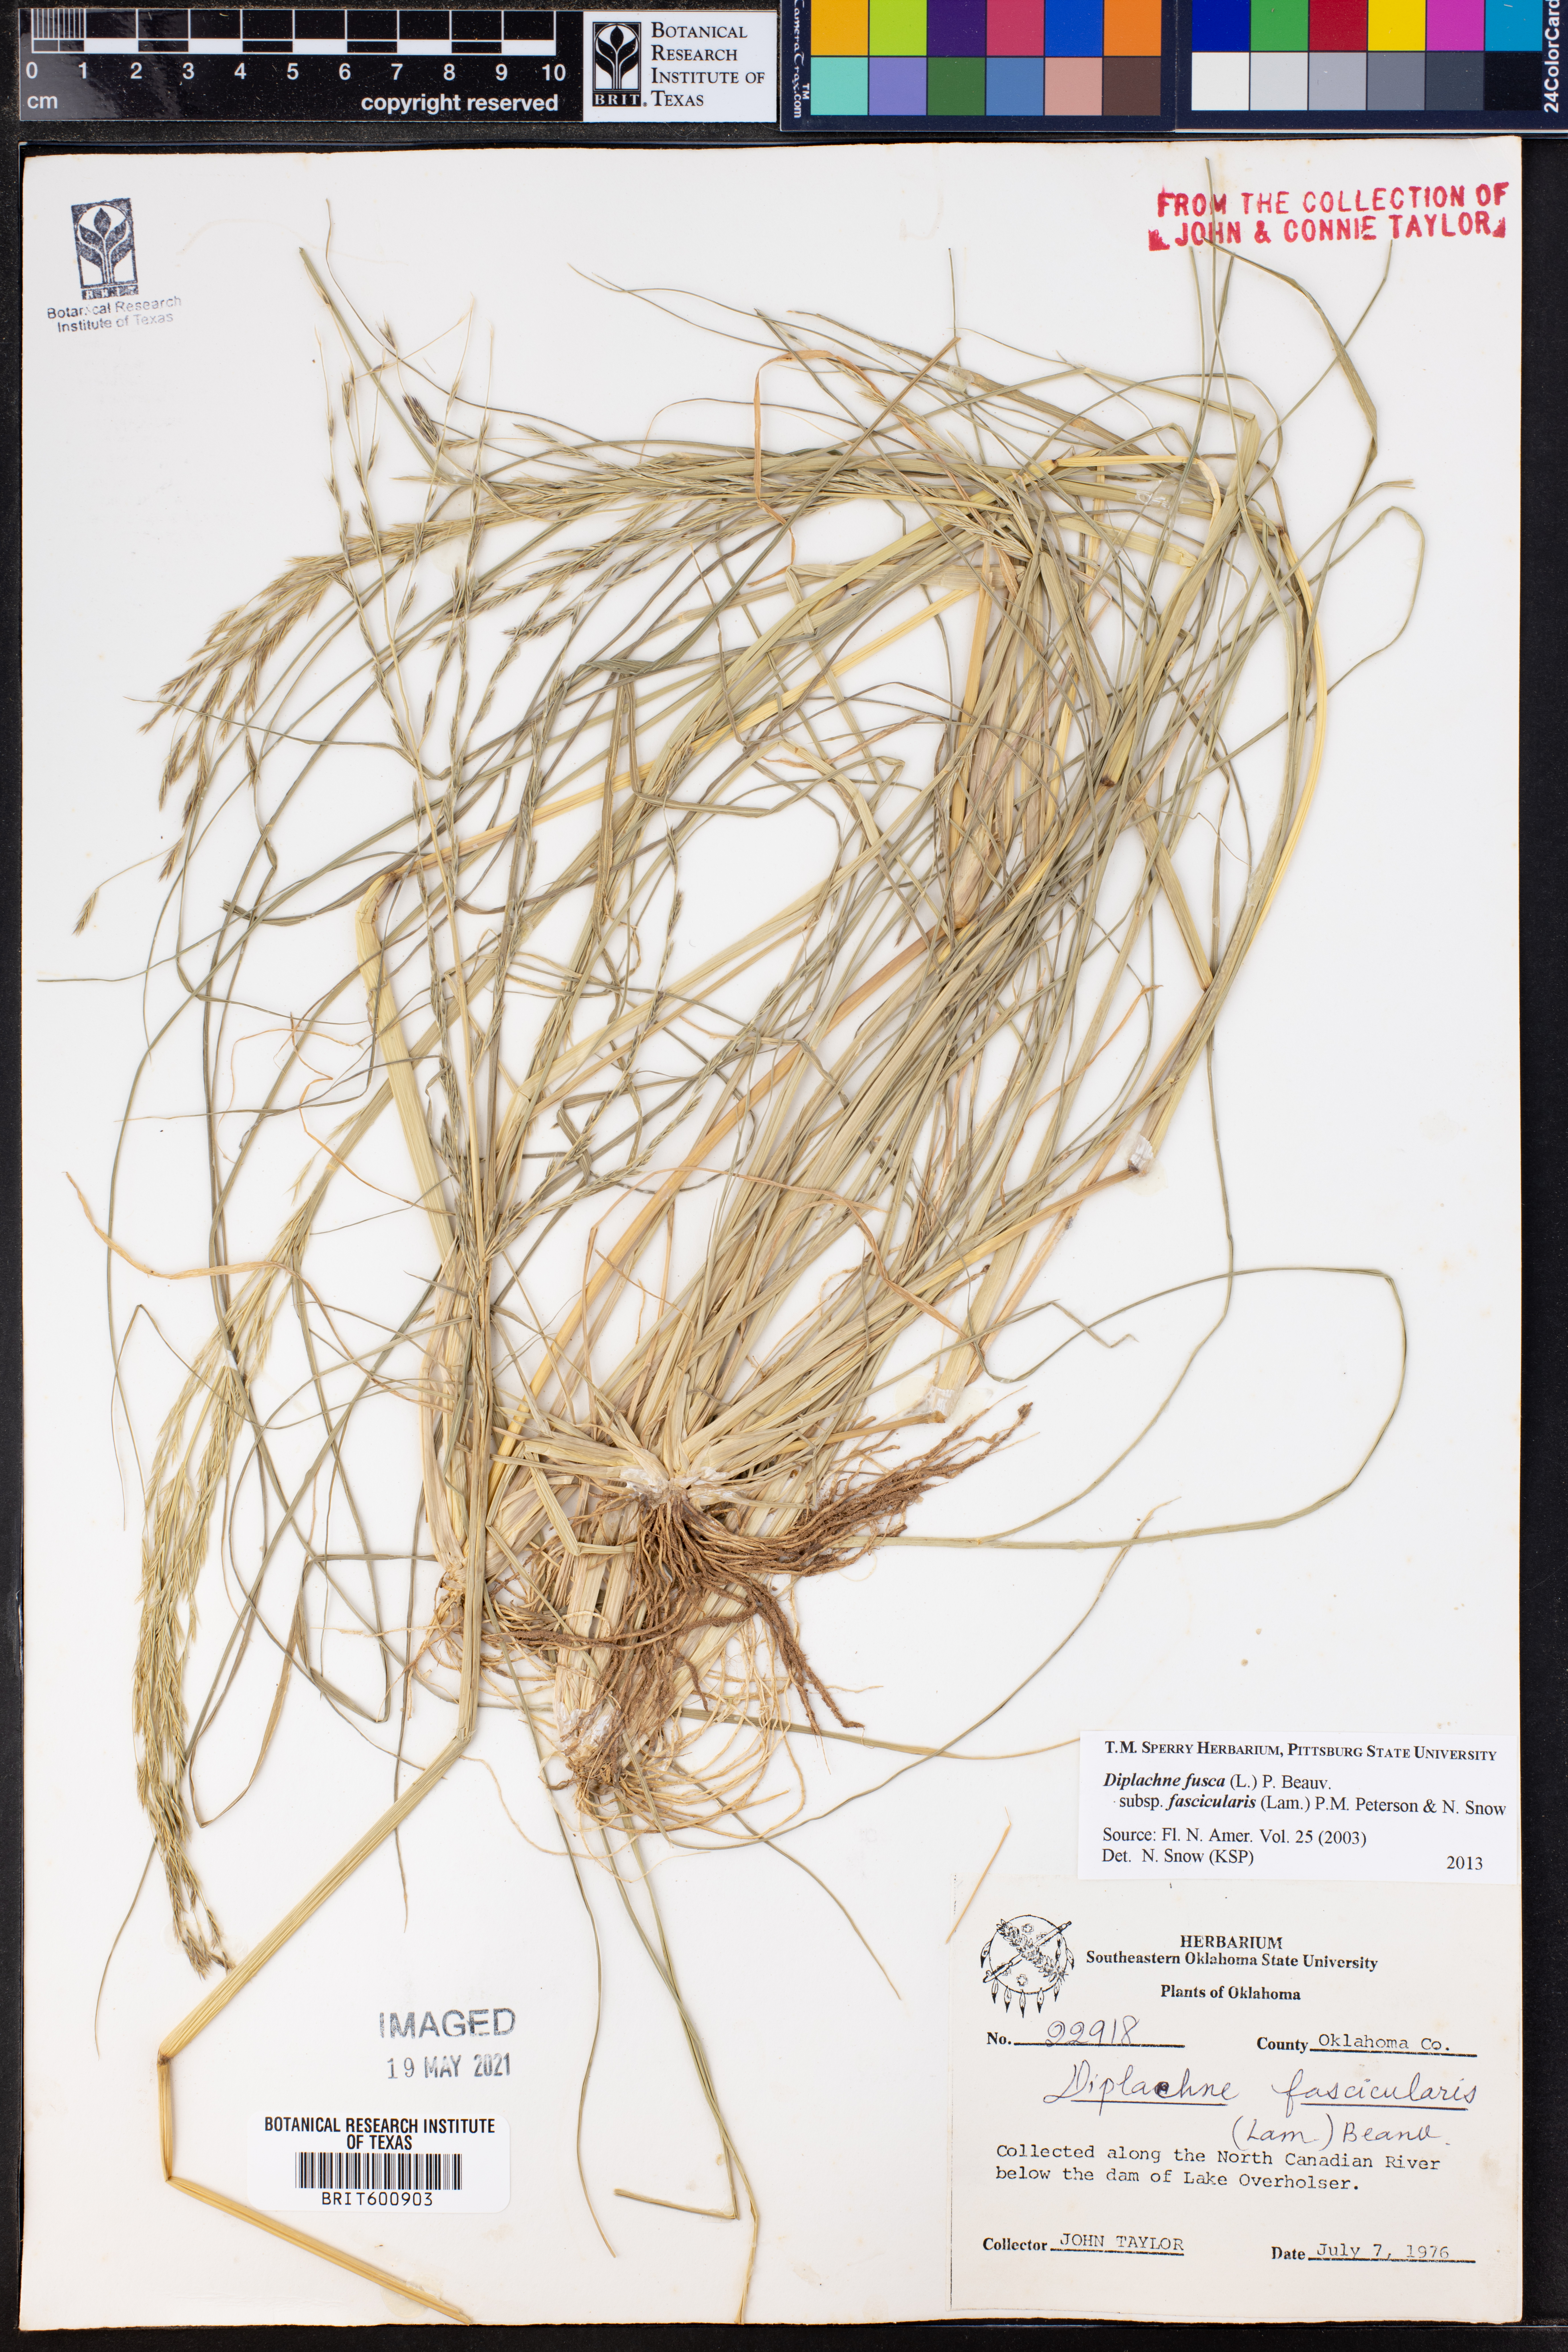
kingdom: Plantae
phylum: Tracheophyta
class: Liliopsida
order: Poales
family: Poaceae
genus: Diplachne
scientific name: Diplachne fusca
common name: Brown beetle grass
